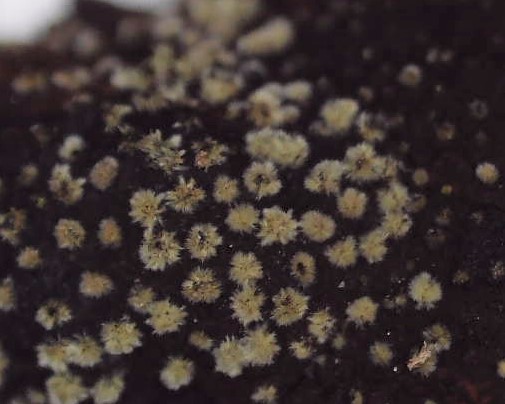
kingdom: Fungi
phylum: Ascomycota
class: Sordariomycetes
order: Xylariales
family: Hypoxylaceae
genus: Hypoxylon
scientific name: Hypoxylon fragiforme
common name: kuljordbær
